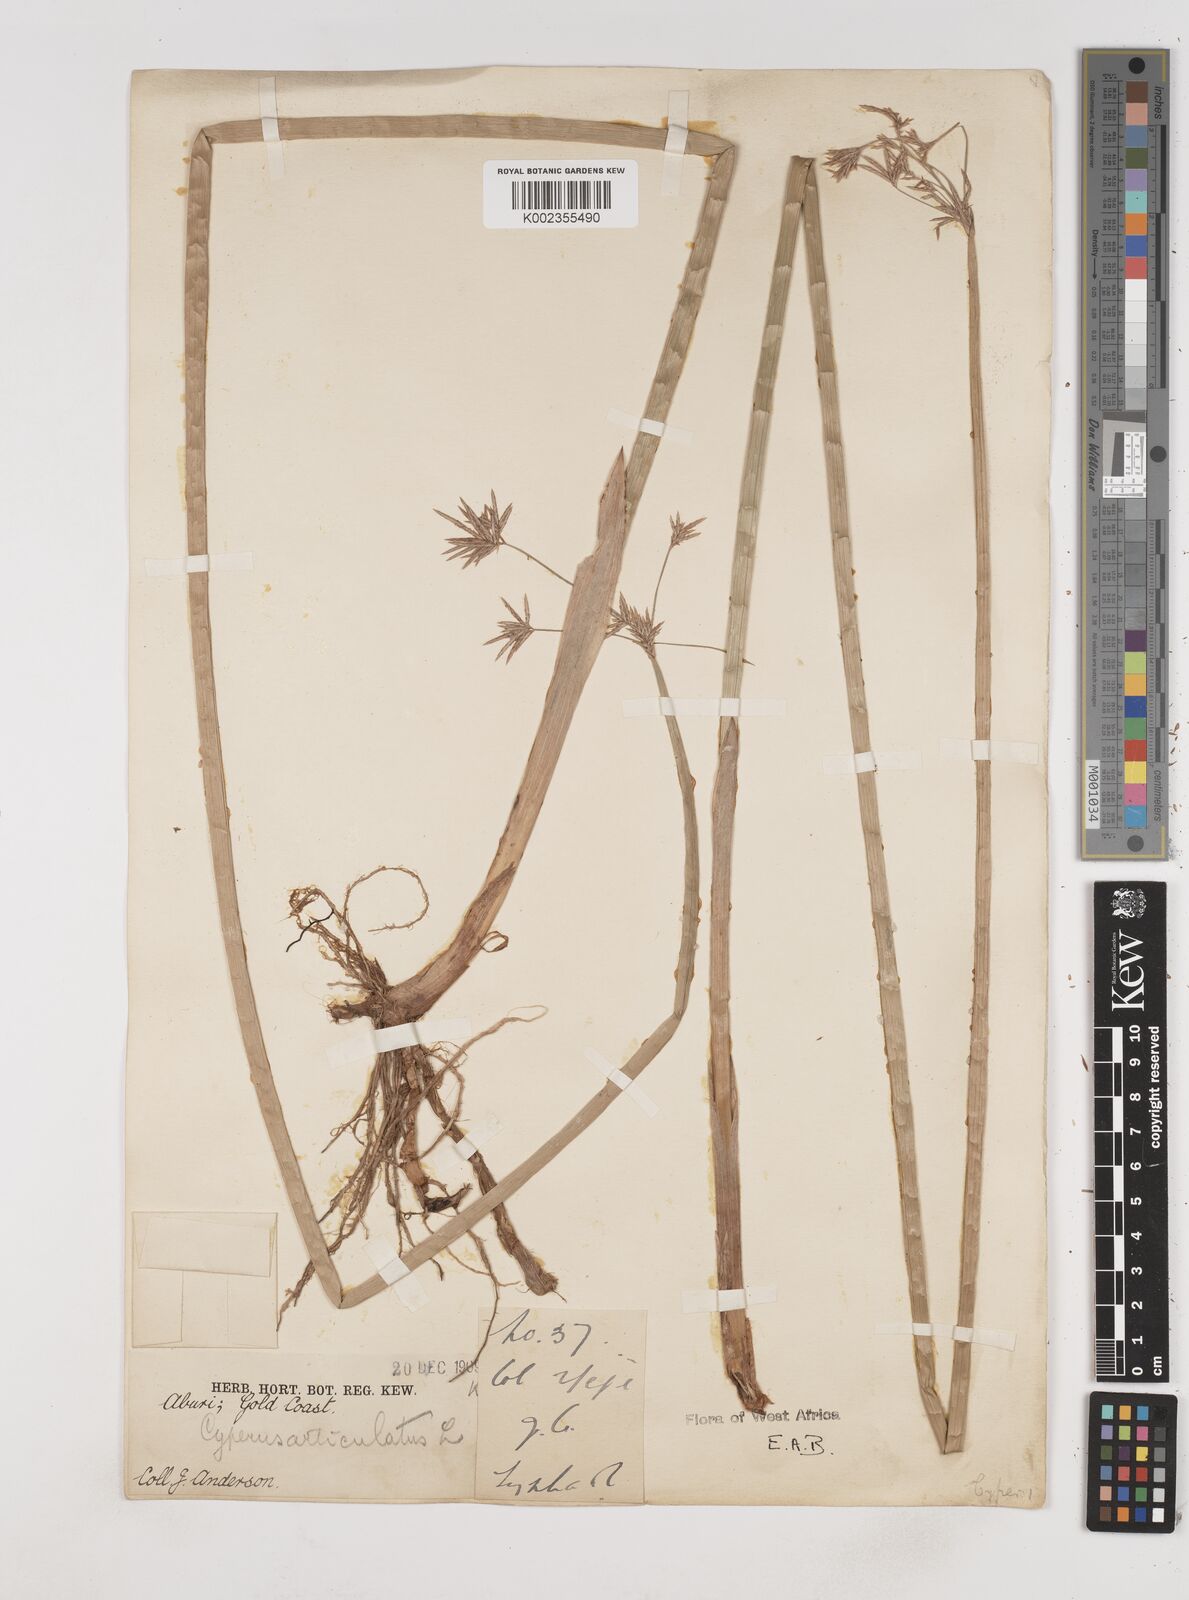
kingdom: Plantae
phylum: Tracheophyta
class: Liliopsida
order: Poales
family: Cyperaceae
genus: Cyperus
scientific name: Cyperus articulatus
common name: Jointed flatsedge
